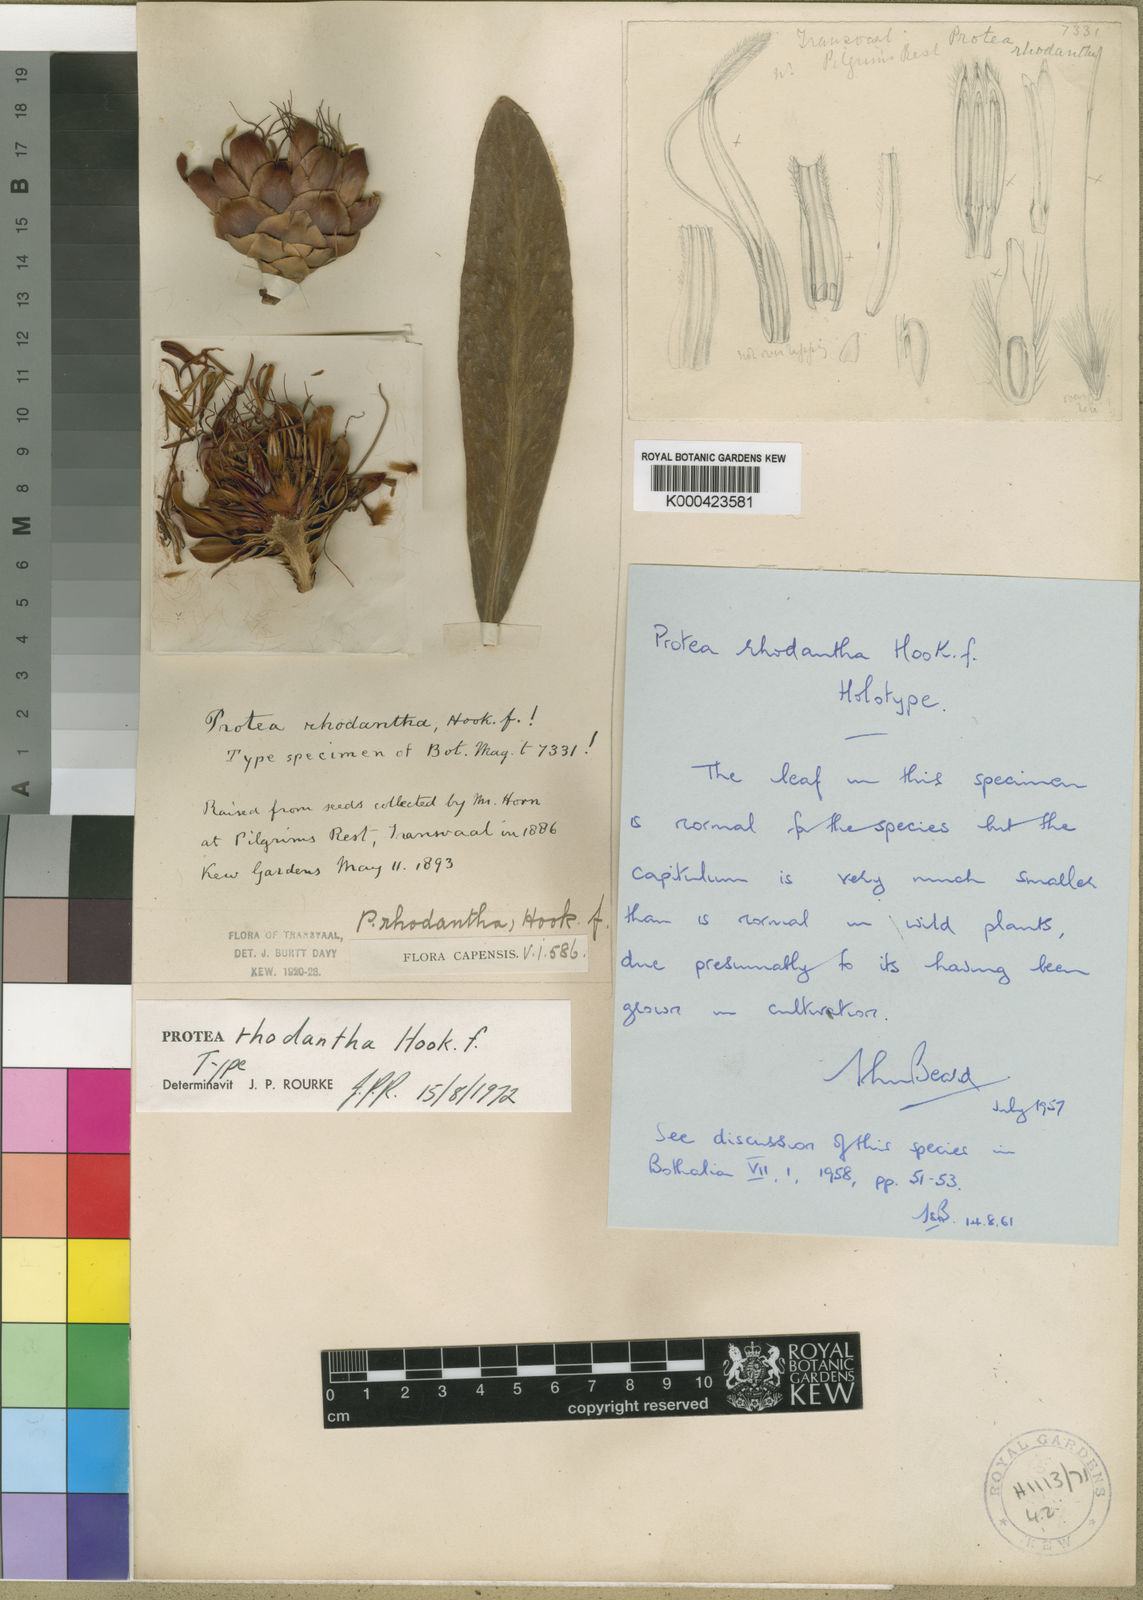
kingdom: Plantae
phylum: Tracheophyta
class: Magnoliopsida
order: Proteales
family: Proteaceae
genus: Protea
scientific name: Protea caffra
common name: Common sugarbush
